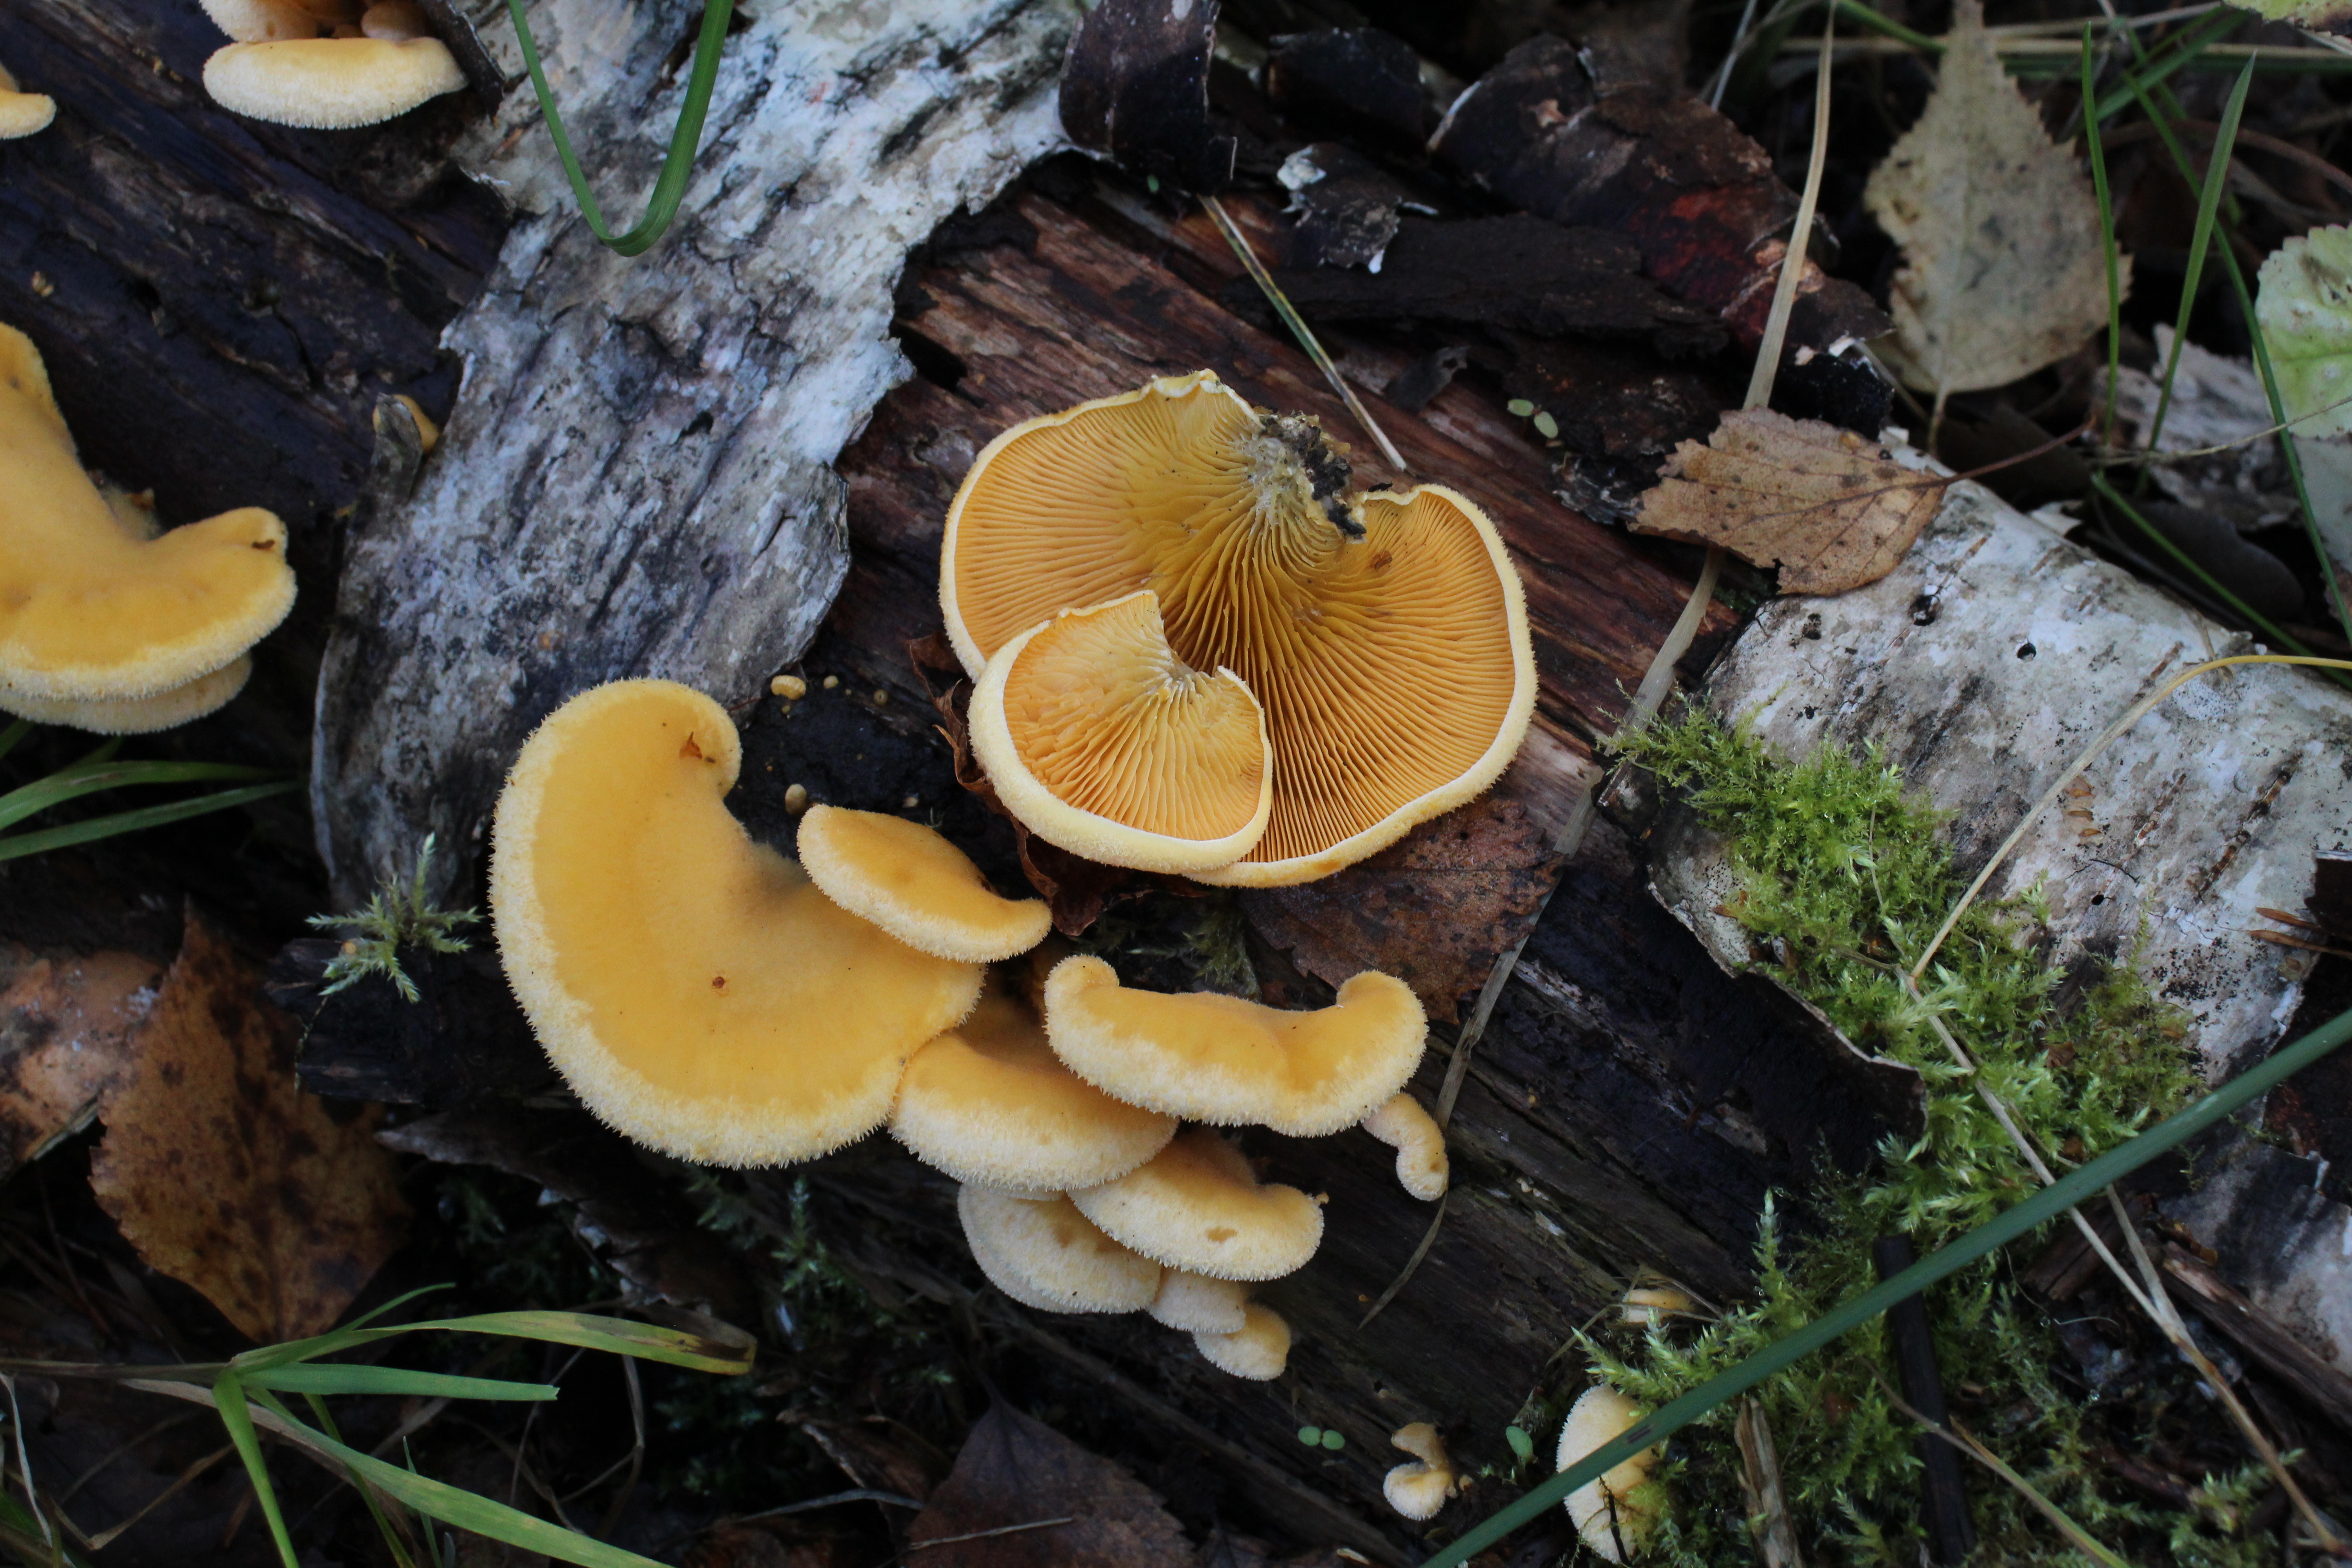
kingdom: Fungi
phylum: Basidiomycota
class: Agaricomycetes
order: Agaricales
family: Phyllotopsidaceae
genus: Phyllotopsis
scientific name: Phyllotopsis nidulans
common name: Orange mock oyster
